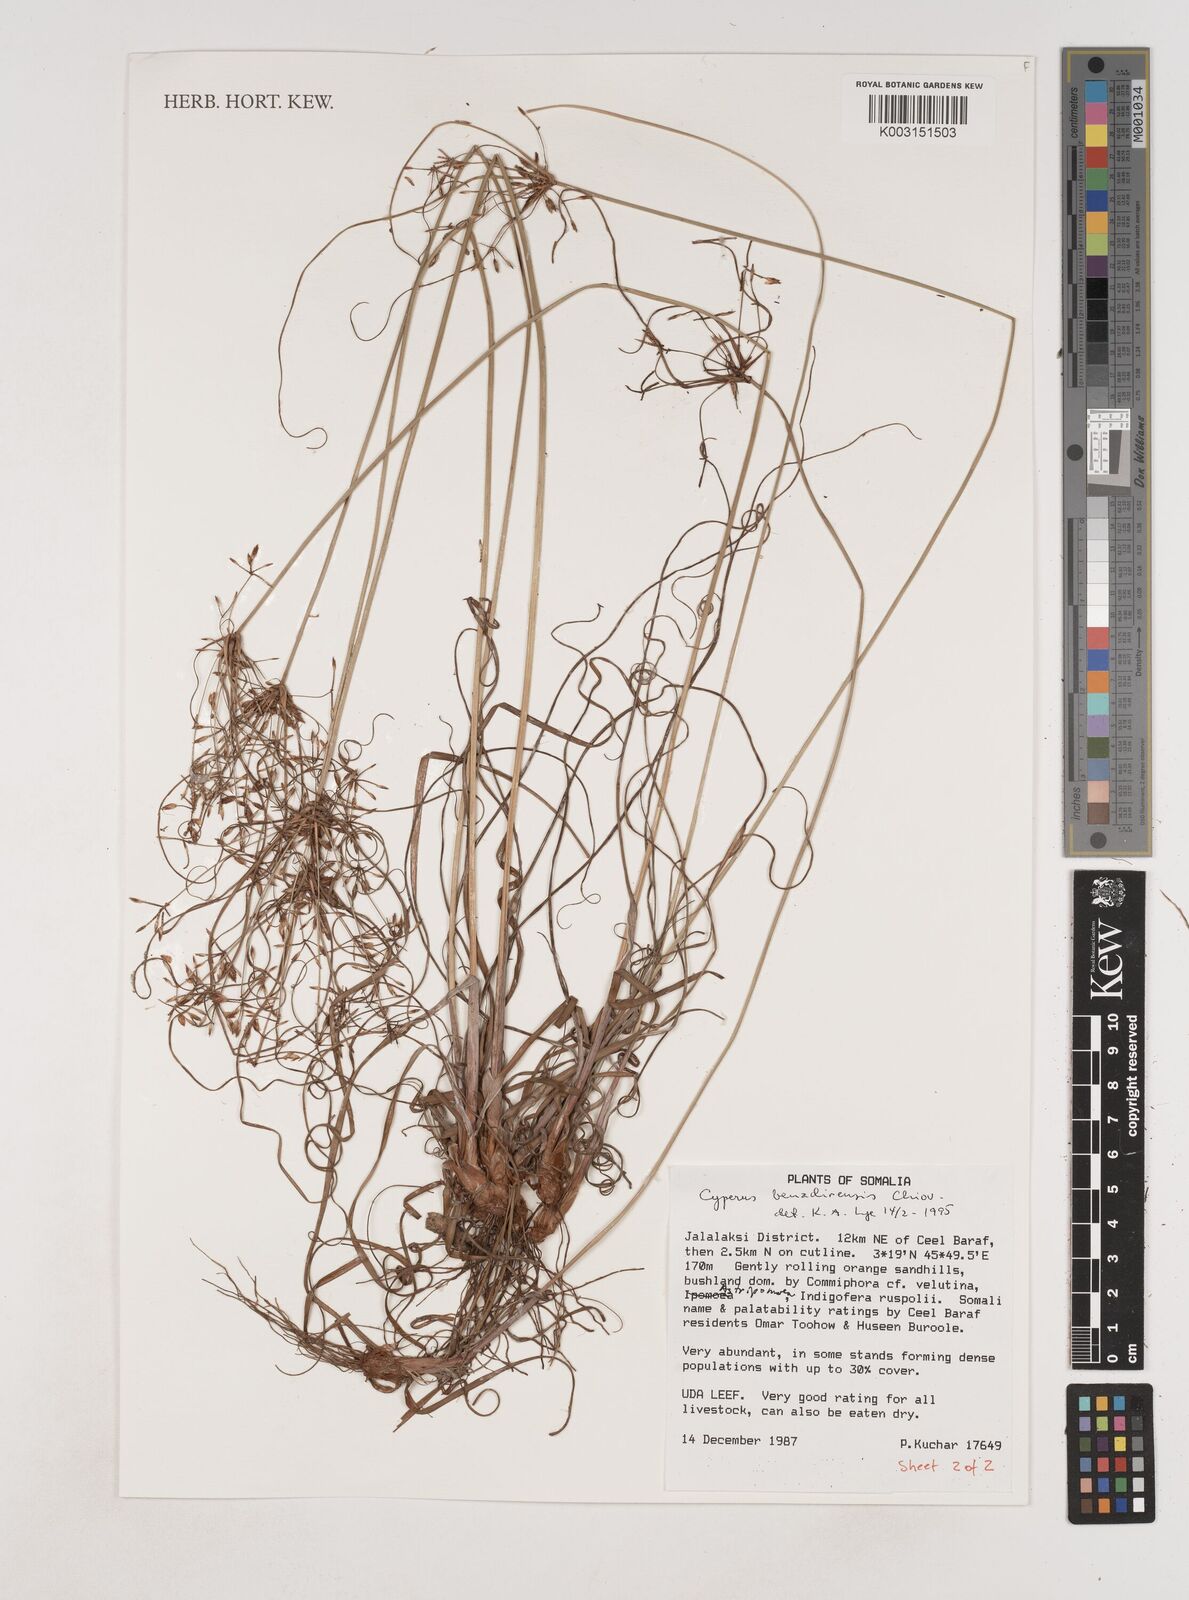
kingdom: Plantae
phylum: Tracheophyta
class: Liliopsida
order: Poales
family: Cyperaceae
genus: Cyperus
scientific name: Cyperus benadirensis
